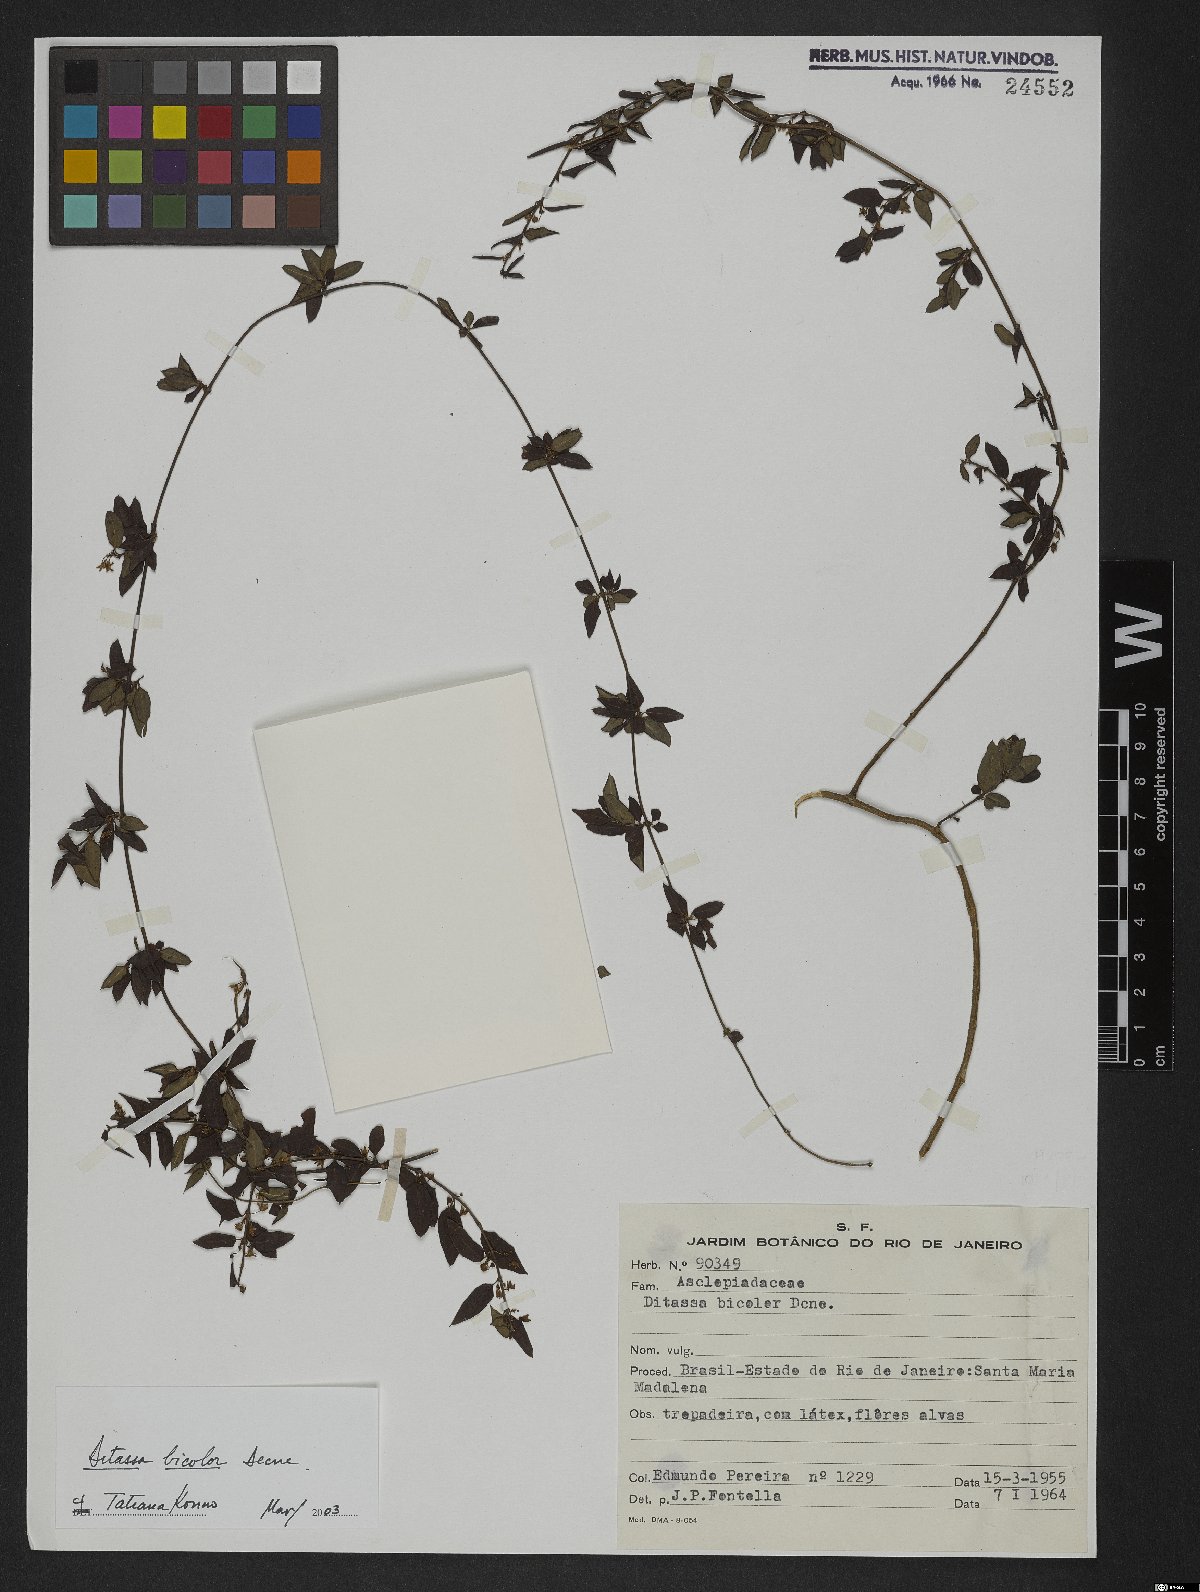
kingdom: Plantae
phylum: Tracheophyta
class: Magnoliopsida
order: Gentianales
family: Apocynaceae
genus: Ditassa
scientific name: Ditassa bicolor
